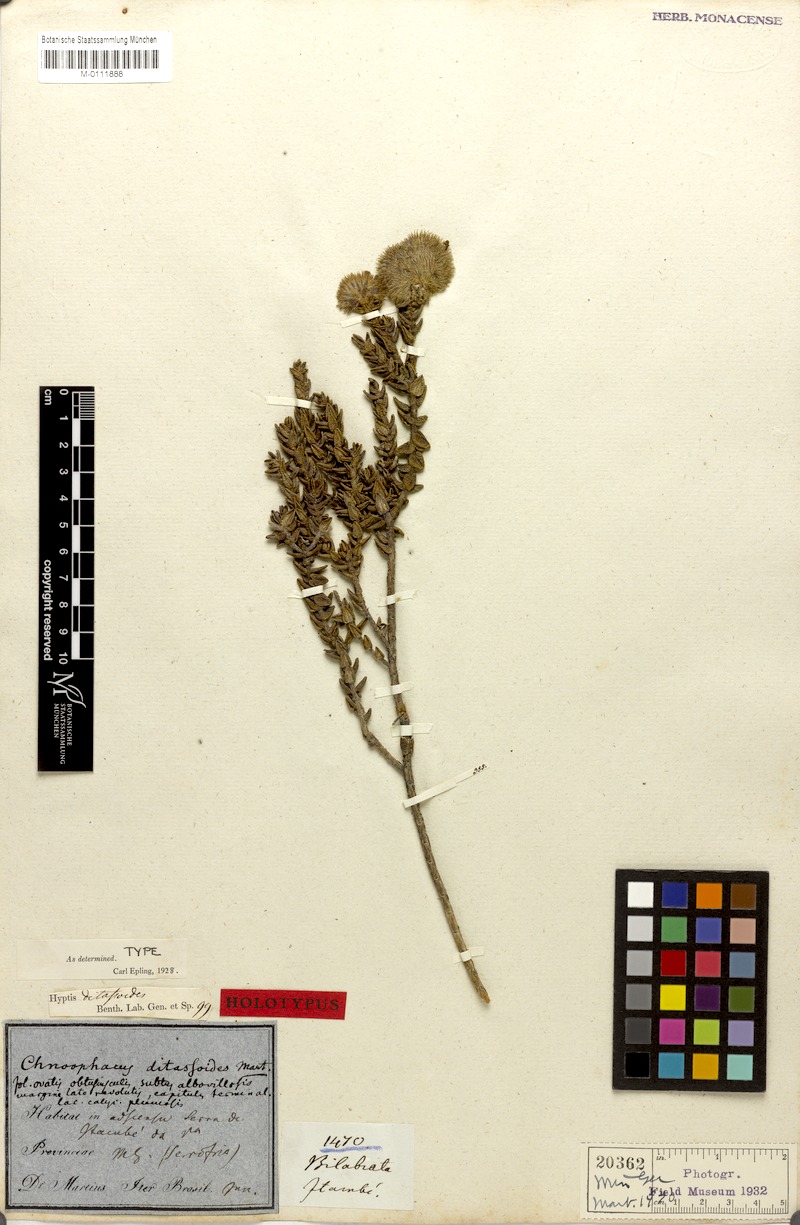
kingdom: Plantae
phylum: Tracheophyta
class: Magnoliopsida
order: Lamiales
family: Lamiaceae
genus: Hyptis
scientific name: Hyptis ditassoides
